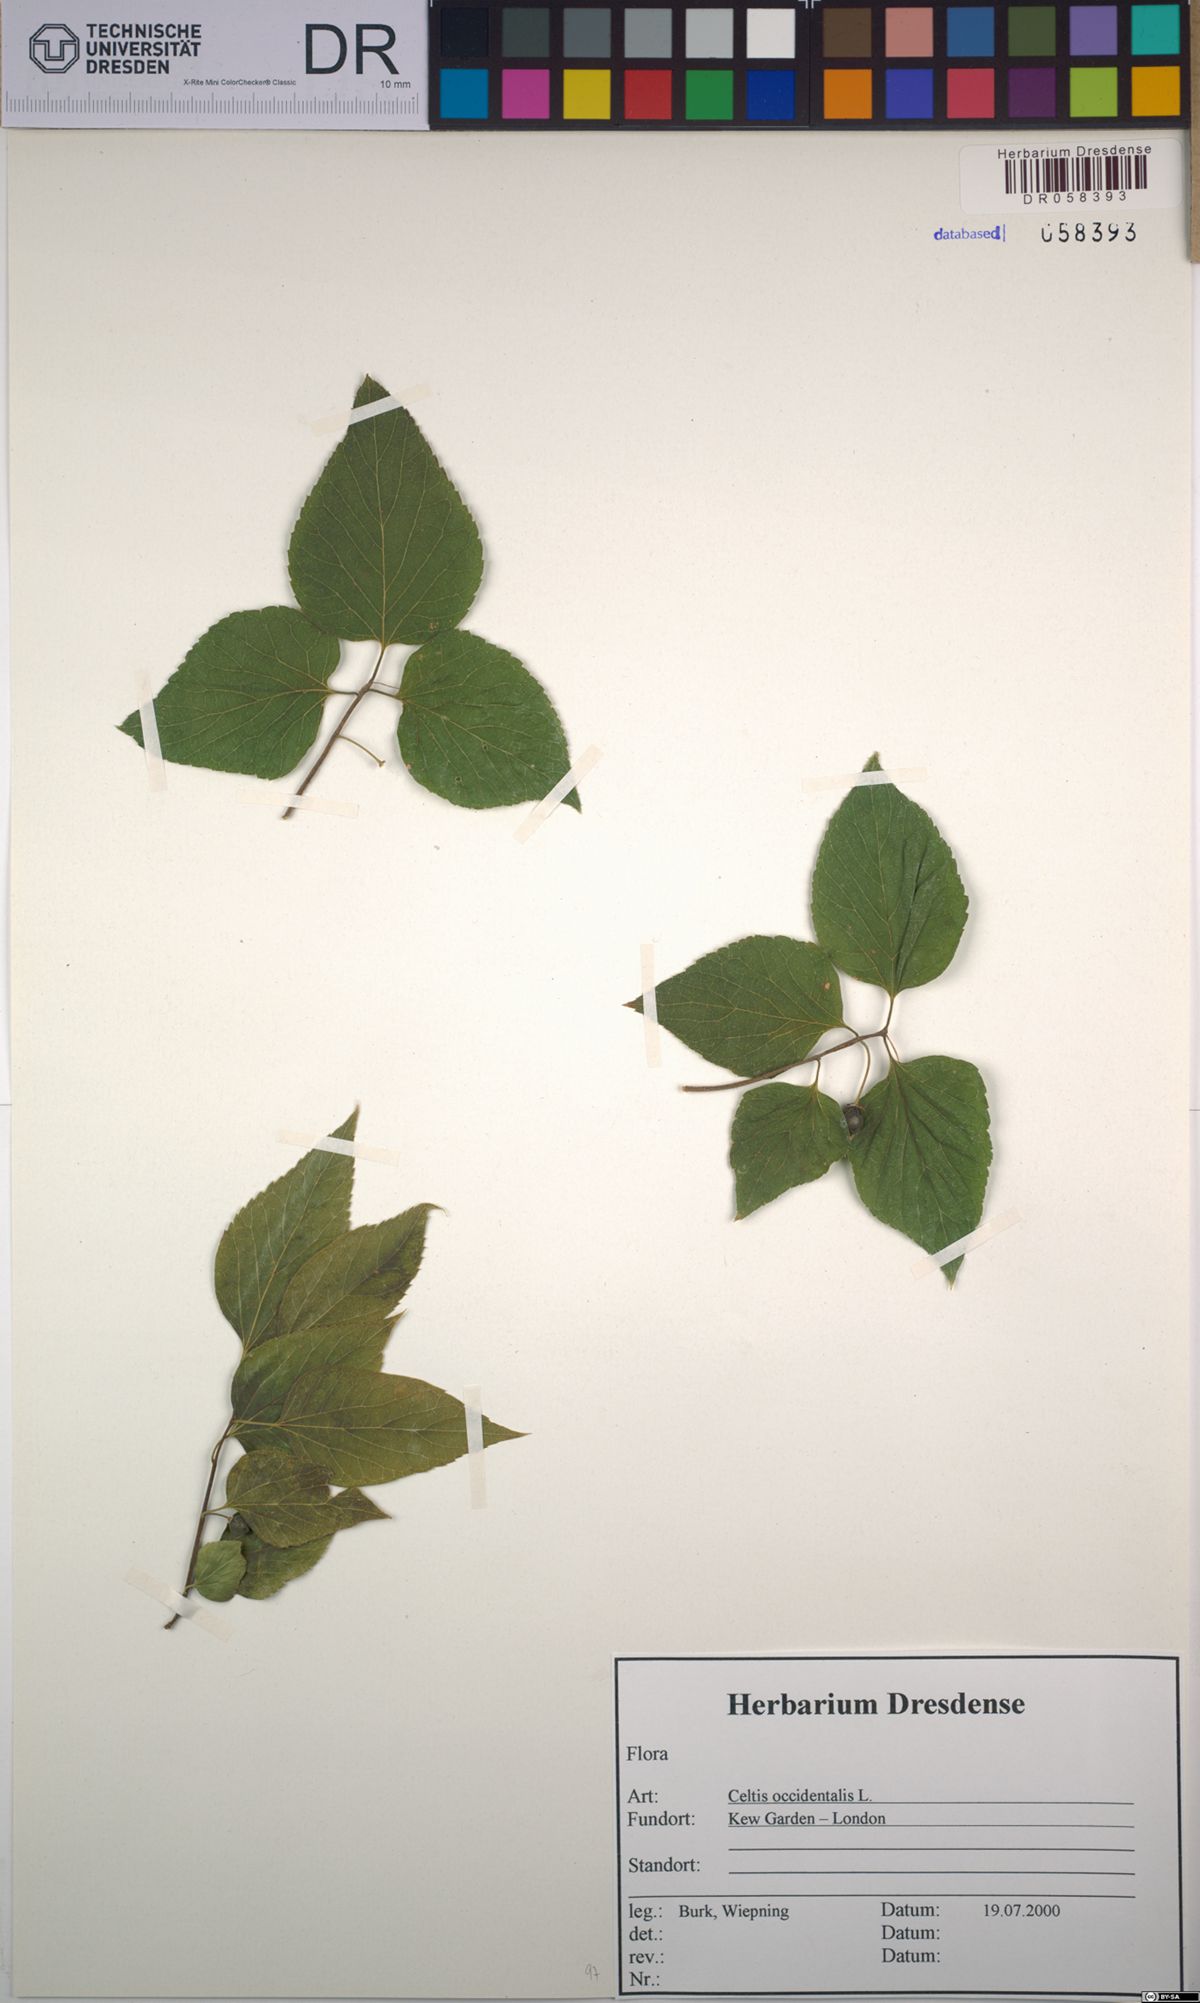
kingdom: Plantae
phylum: Tracheophyta
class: Magnoliopsida
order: Rosales
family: Cannabaceae
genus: Celtis
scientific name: Celtis occidentalis
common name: Common hackberry
